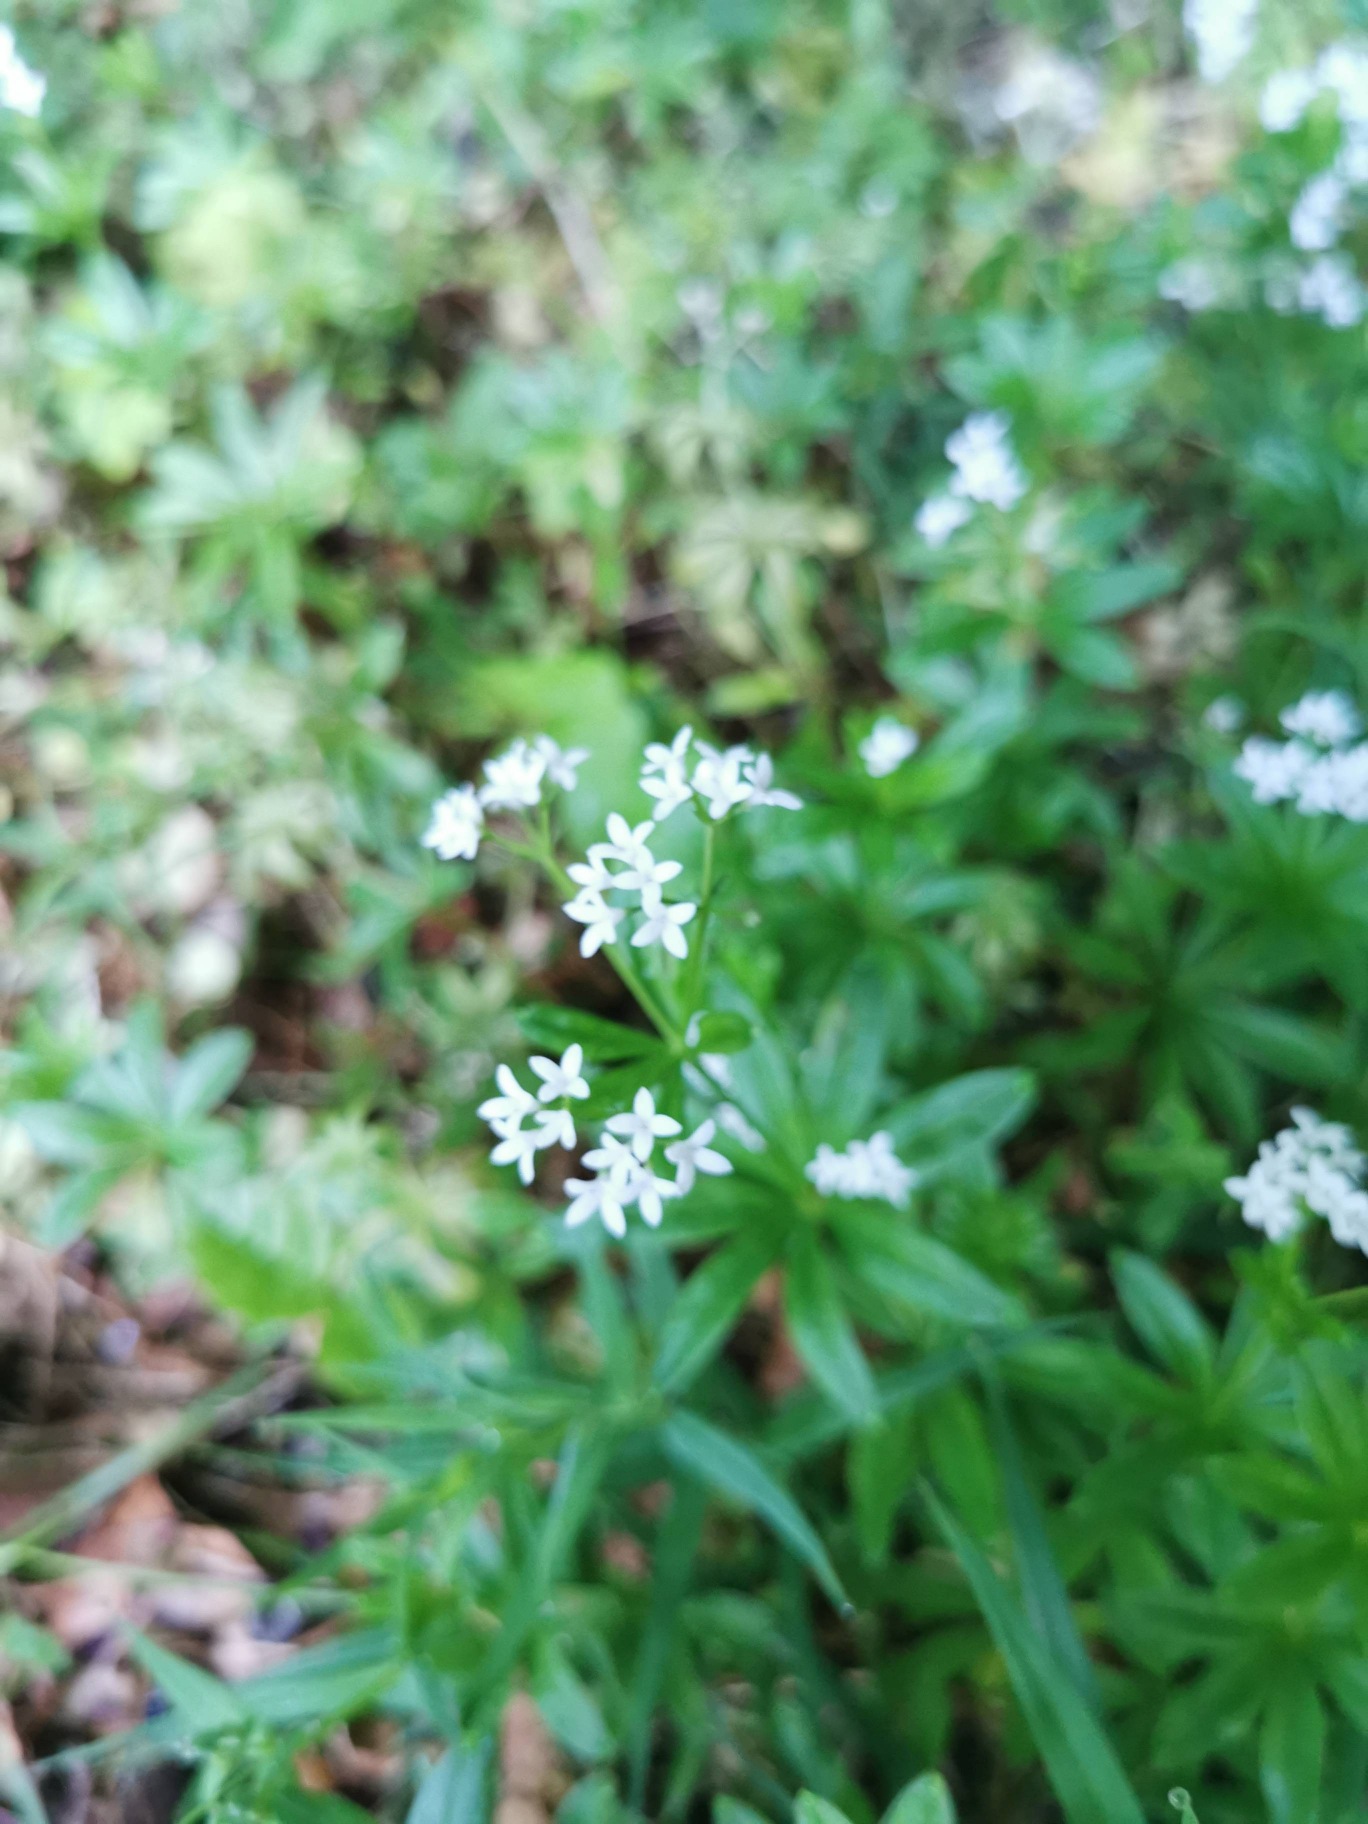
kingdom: Plantae
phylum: Tracheophyta
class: Magnoliopsida
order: Gentianales
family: Rubiaceae
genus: Galium
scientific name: Galium odoratum
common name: Skovmærke
